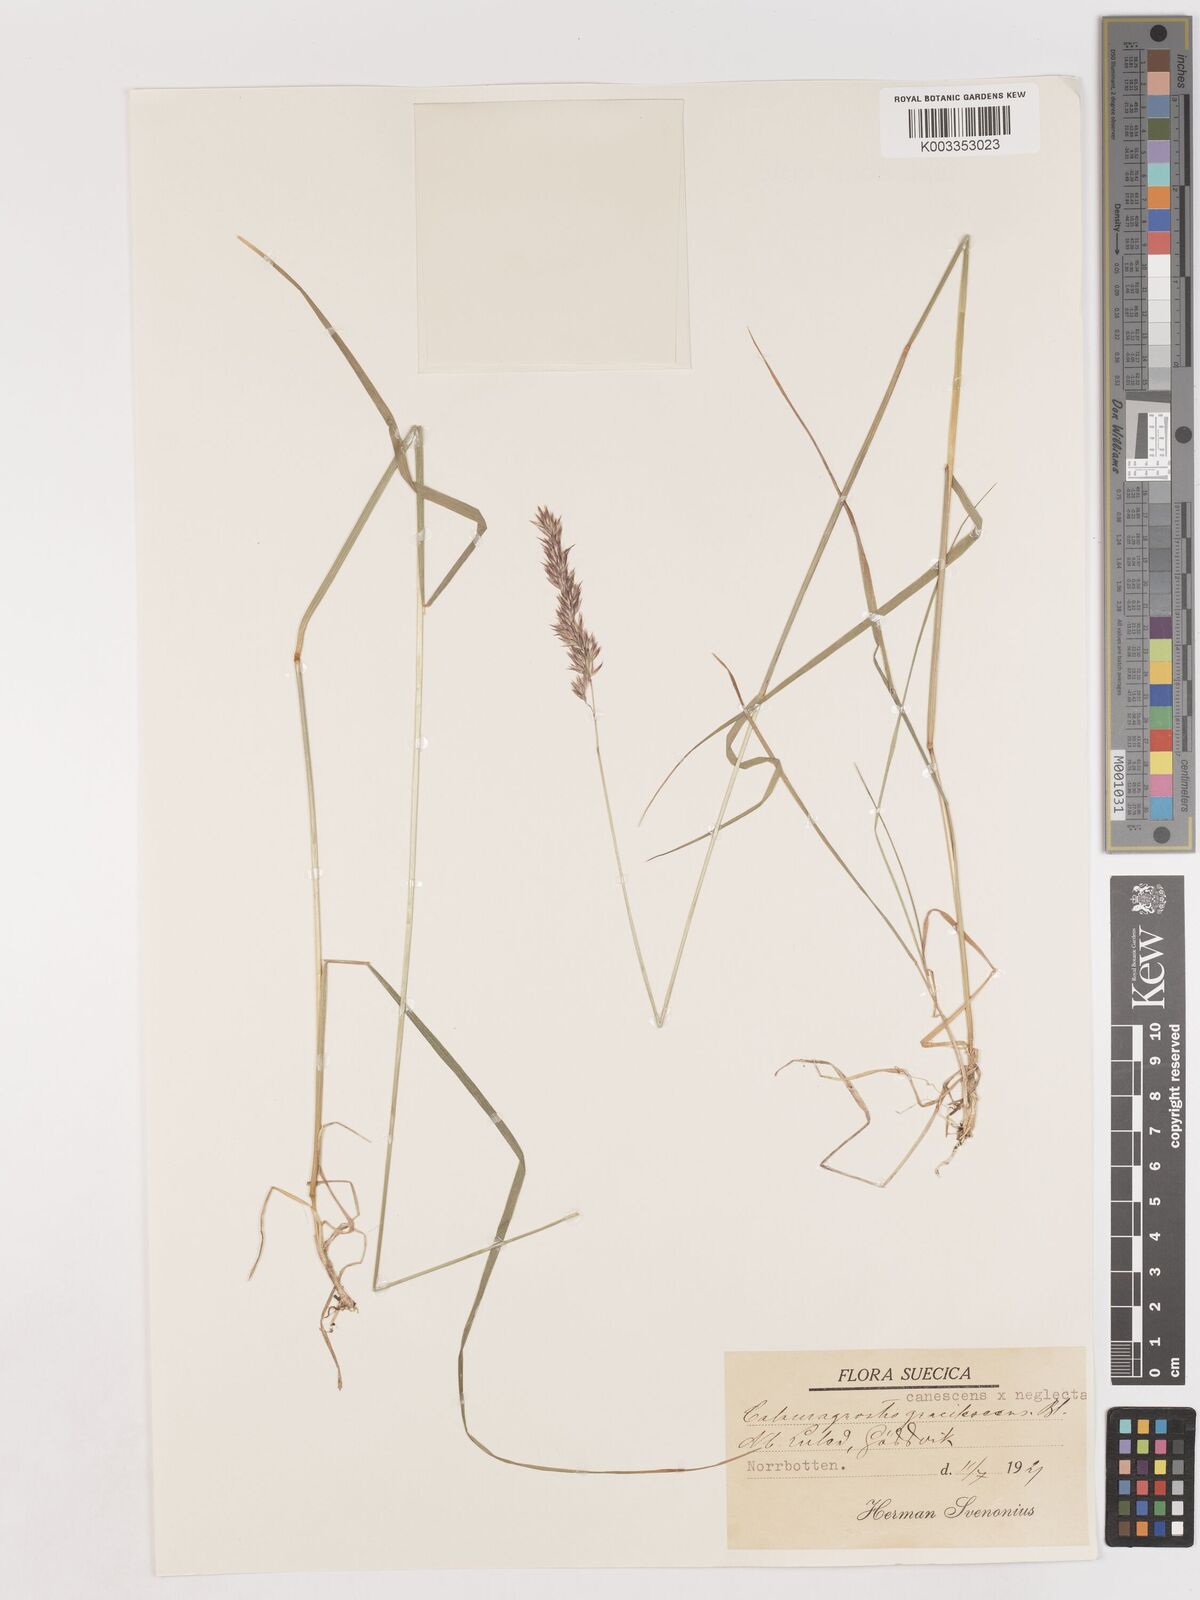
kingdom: Plantae
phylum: Tracheophyta
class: Liliopsida
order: Poales
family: Poaceae
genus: Calamagrostis
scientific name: Calamagrostis canescens
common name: Purple small-reed
